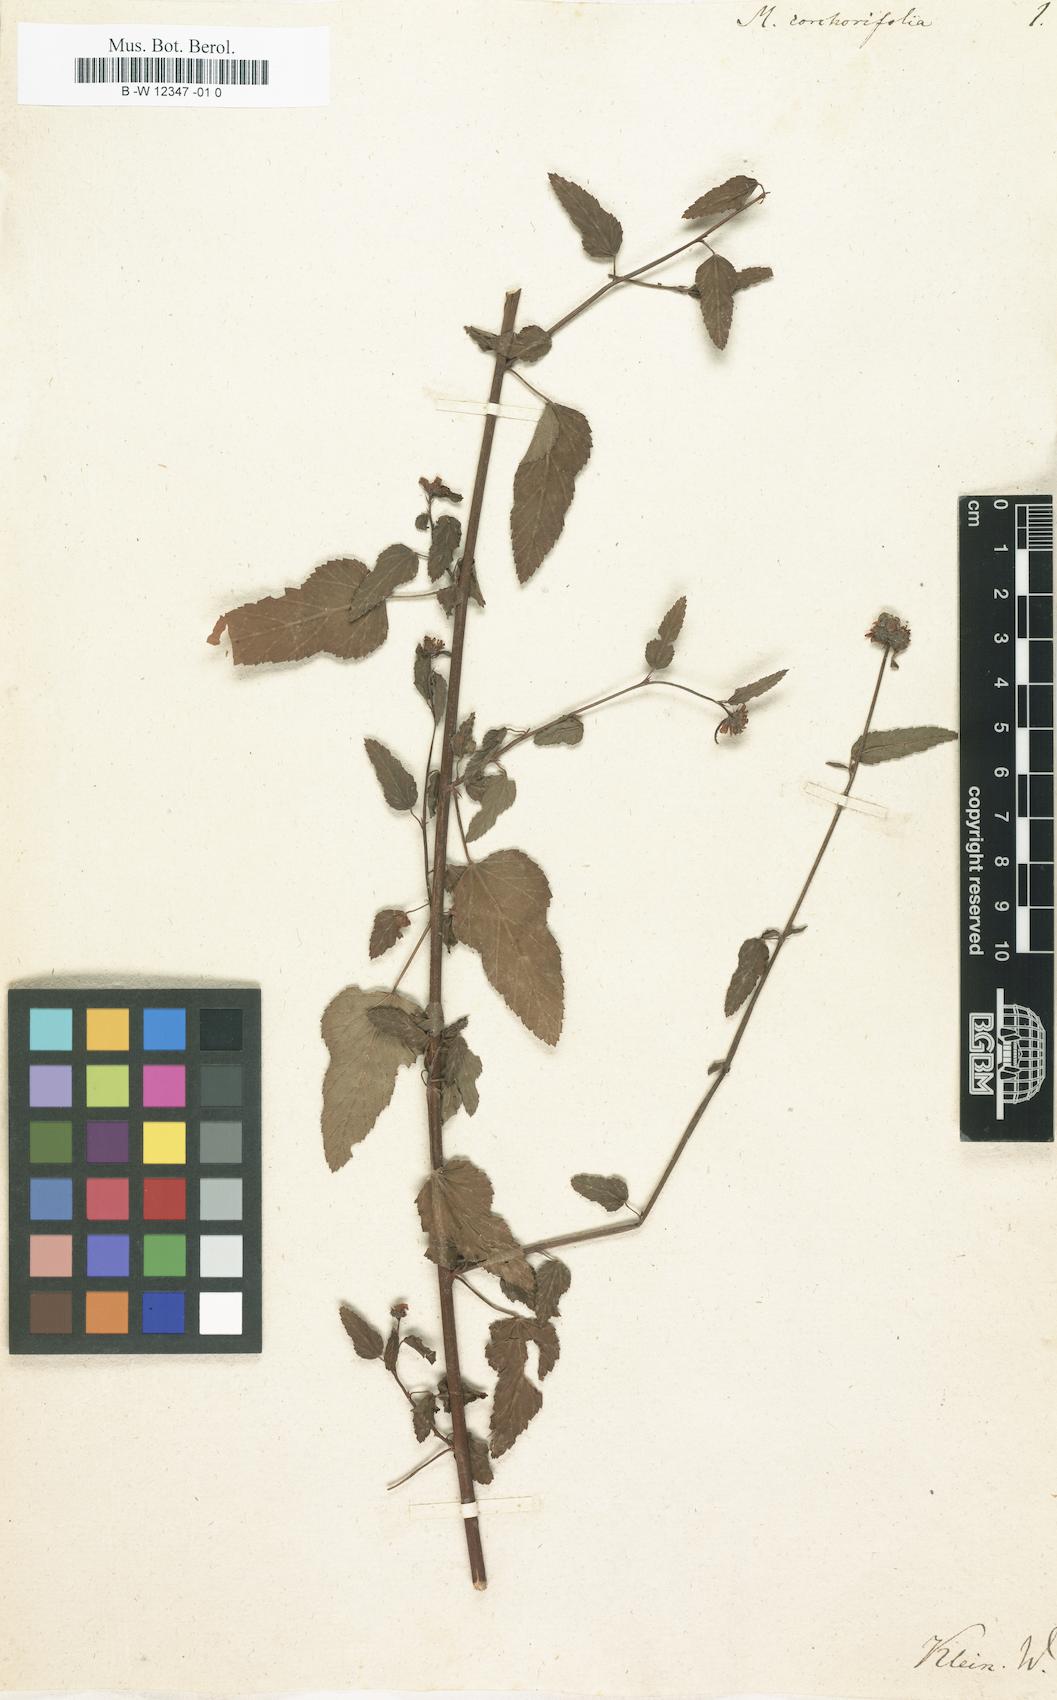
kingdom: Plantae
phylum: Tracheophyta
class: Magnoliopsida
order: Malvales
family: Malvaceae
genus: Melochia
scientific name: Melochia corchorifolia
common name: Chocolateweed
